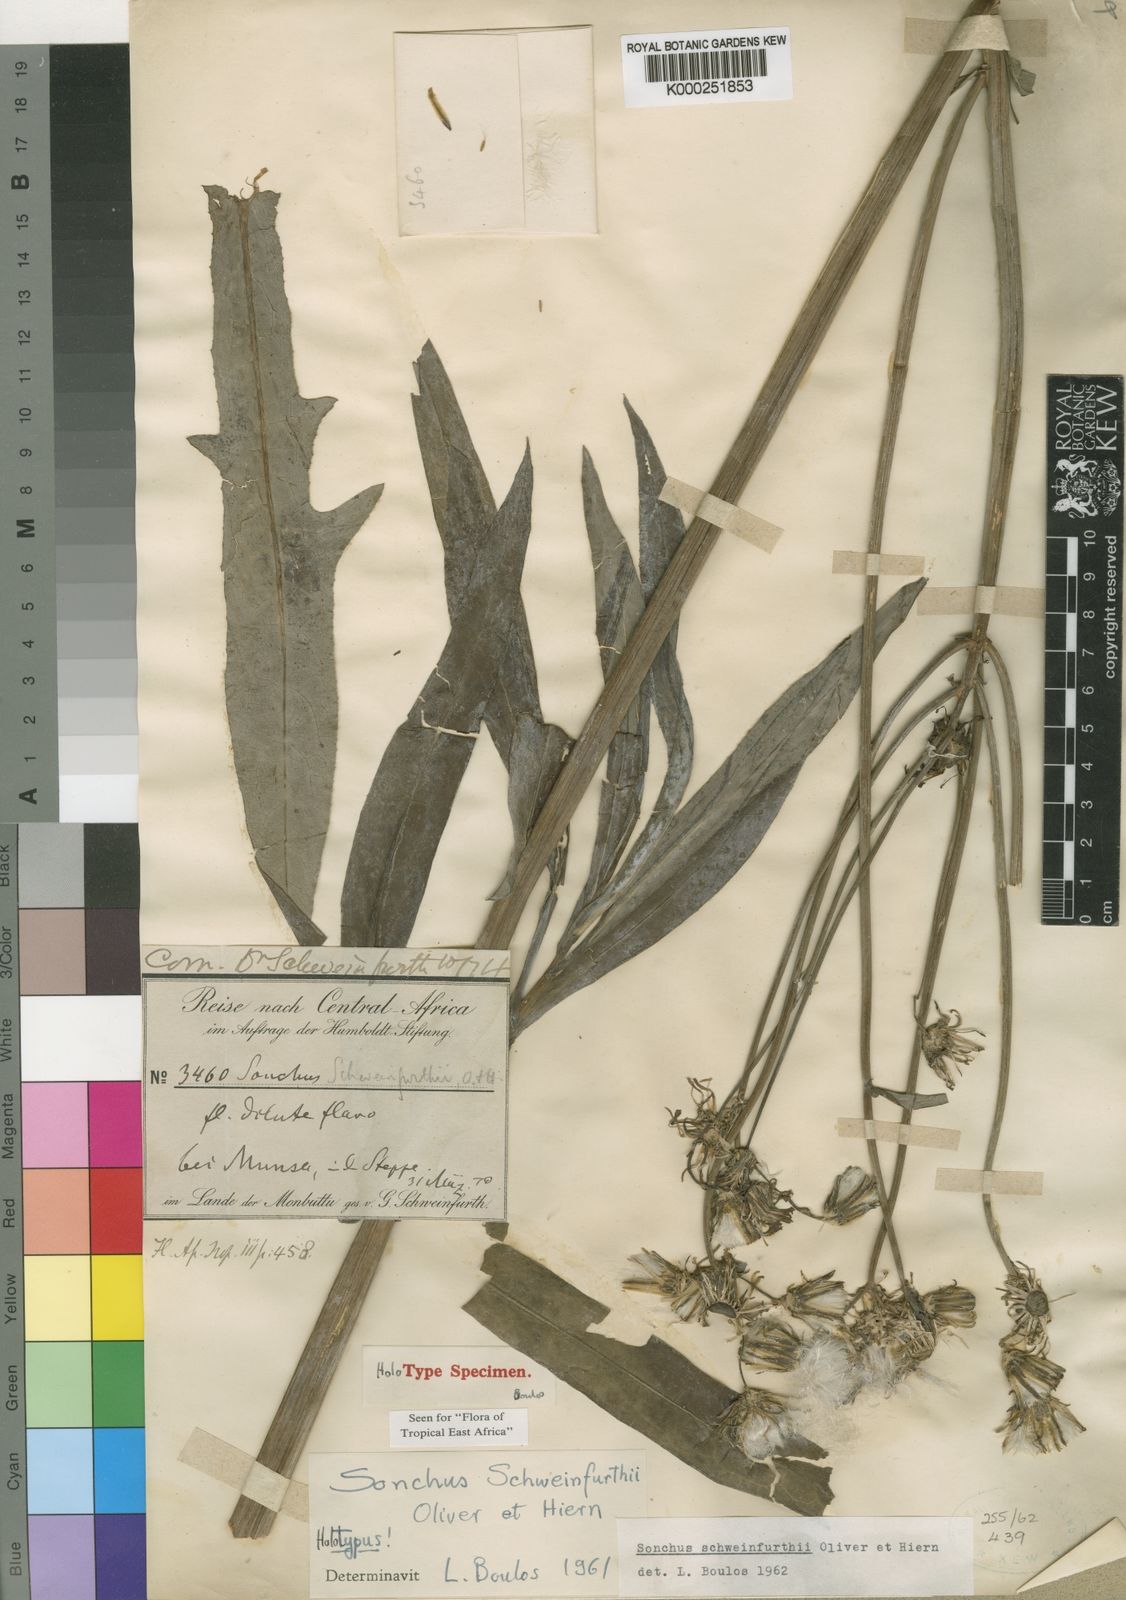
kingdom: Plantae
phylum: Tracheophyta
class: Magnoliopsida
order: Asterales
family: Asteraceae
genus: Sonchus
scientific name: Sonchus schweinfurthii
